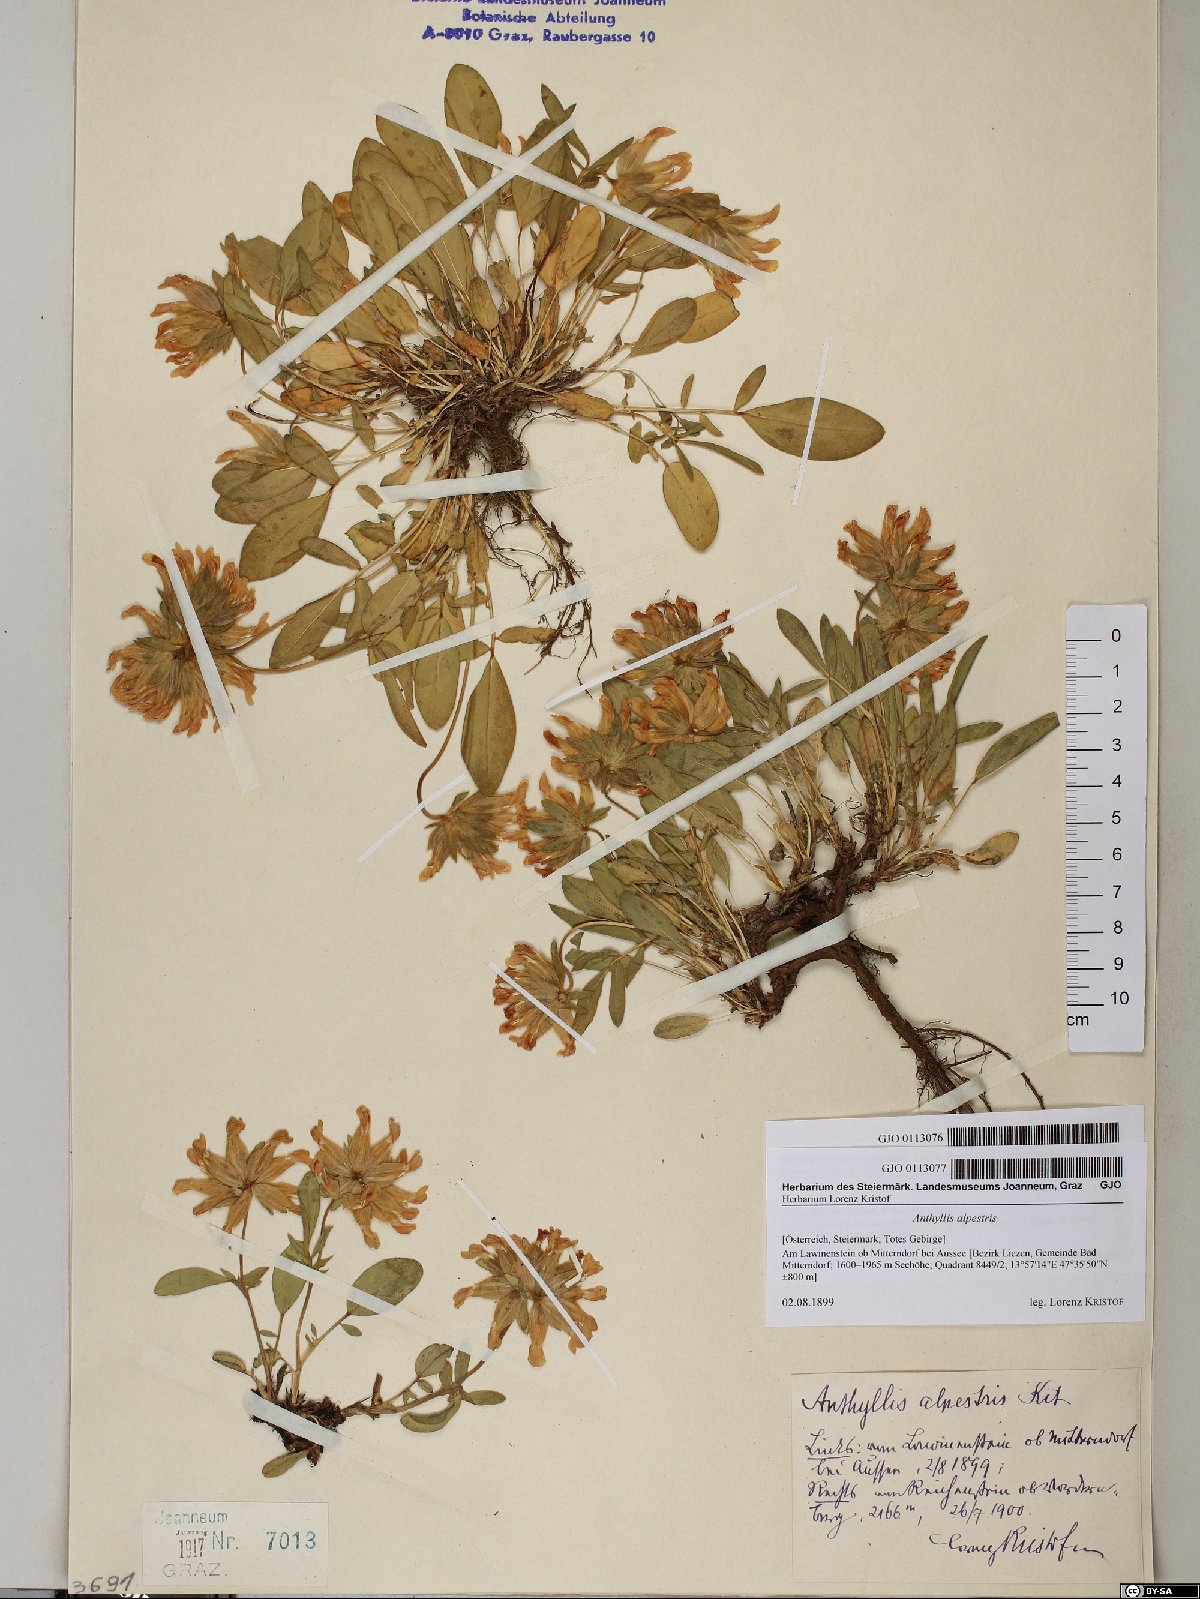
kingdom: Plantae
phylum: Tracheophyta
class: Magnoliopsida
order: Fabales
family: Fabaceae
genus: Anthyllis
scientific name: Anthyllis vulneraria
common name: Kidney vetch
